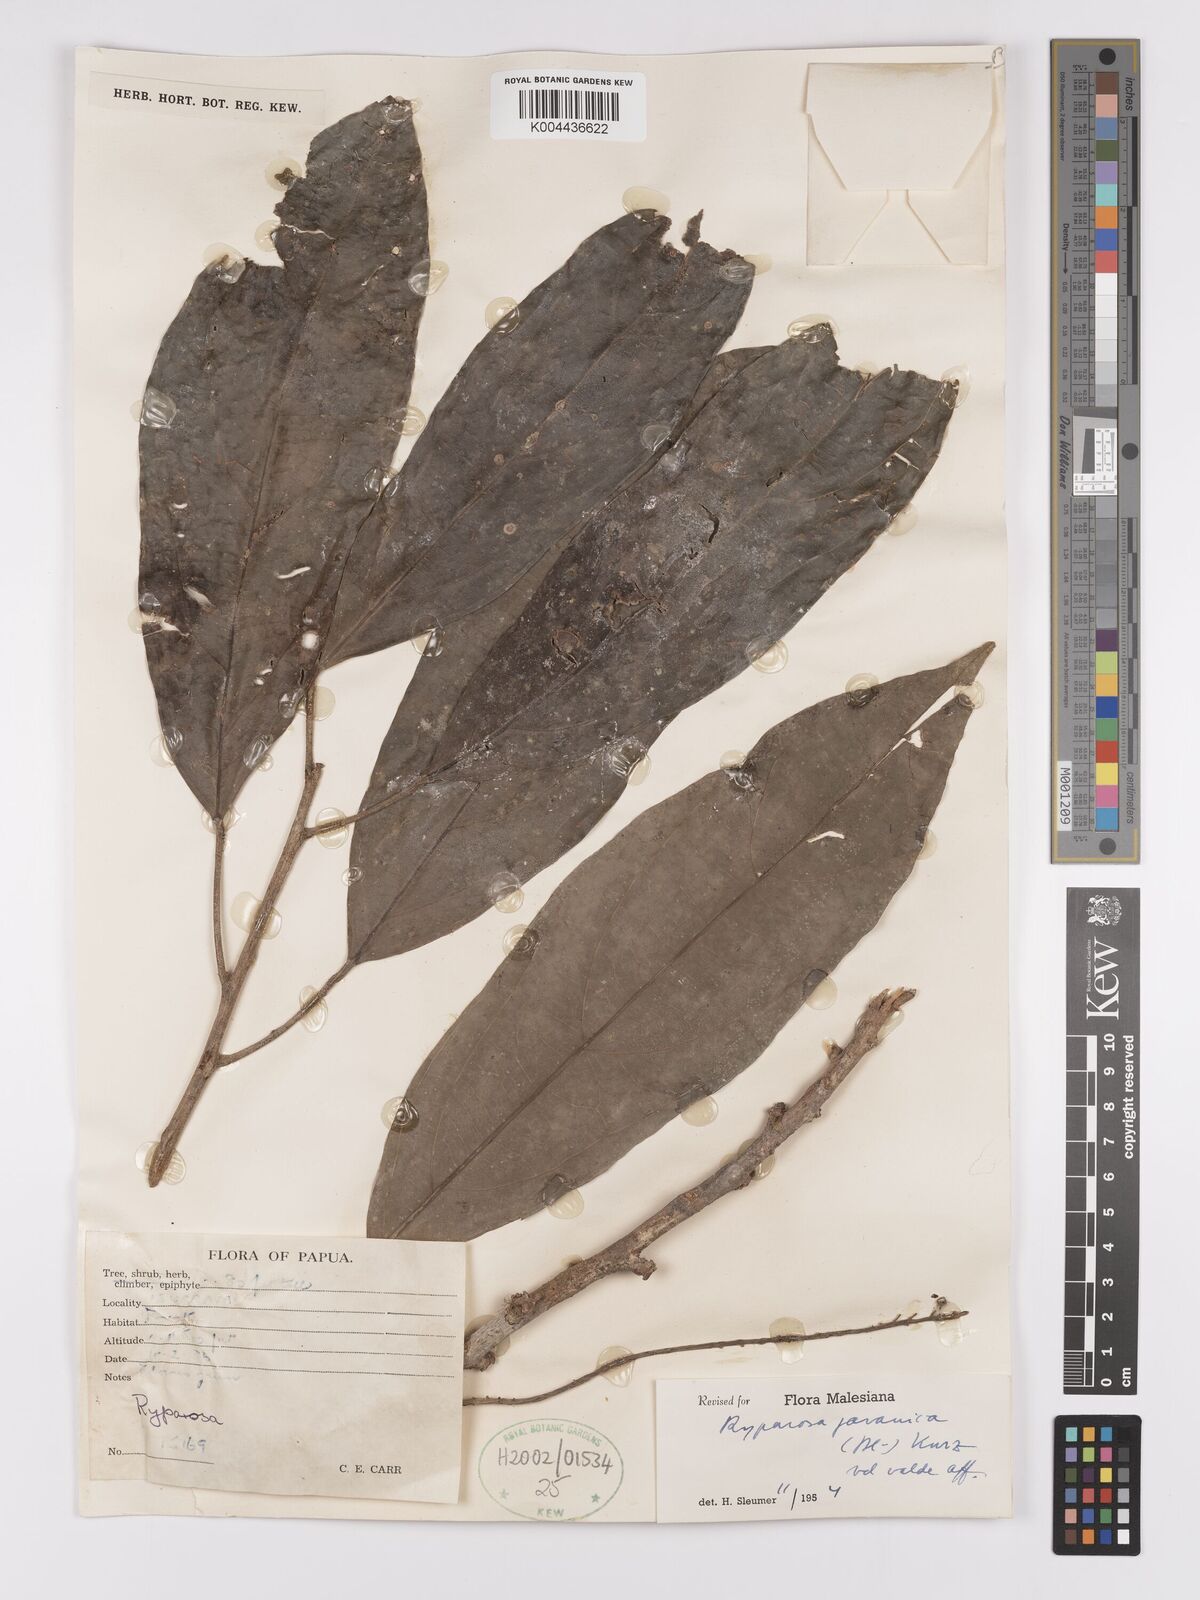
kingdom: Plantae
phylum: Tracheophyta
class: Magnoliopsida
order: Malpighiales
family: Achariaceae
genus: Ryparosa
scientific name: Ryparosa javanica
